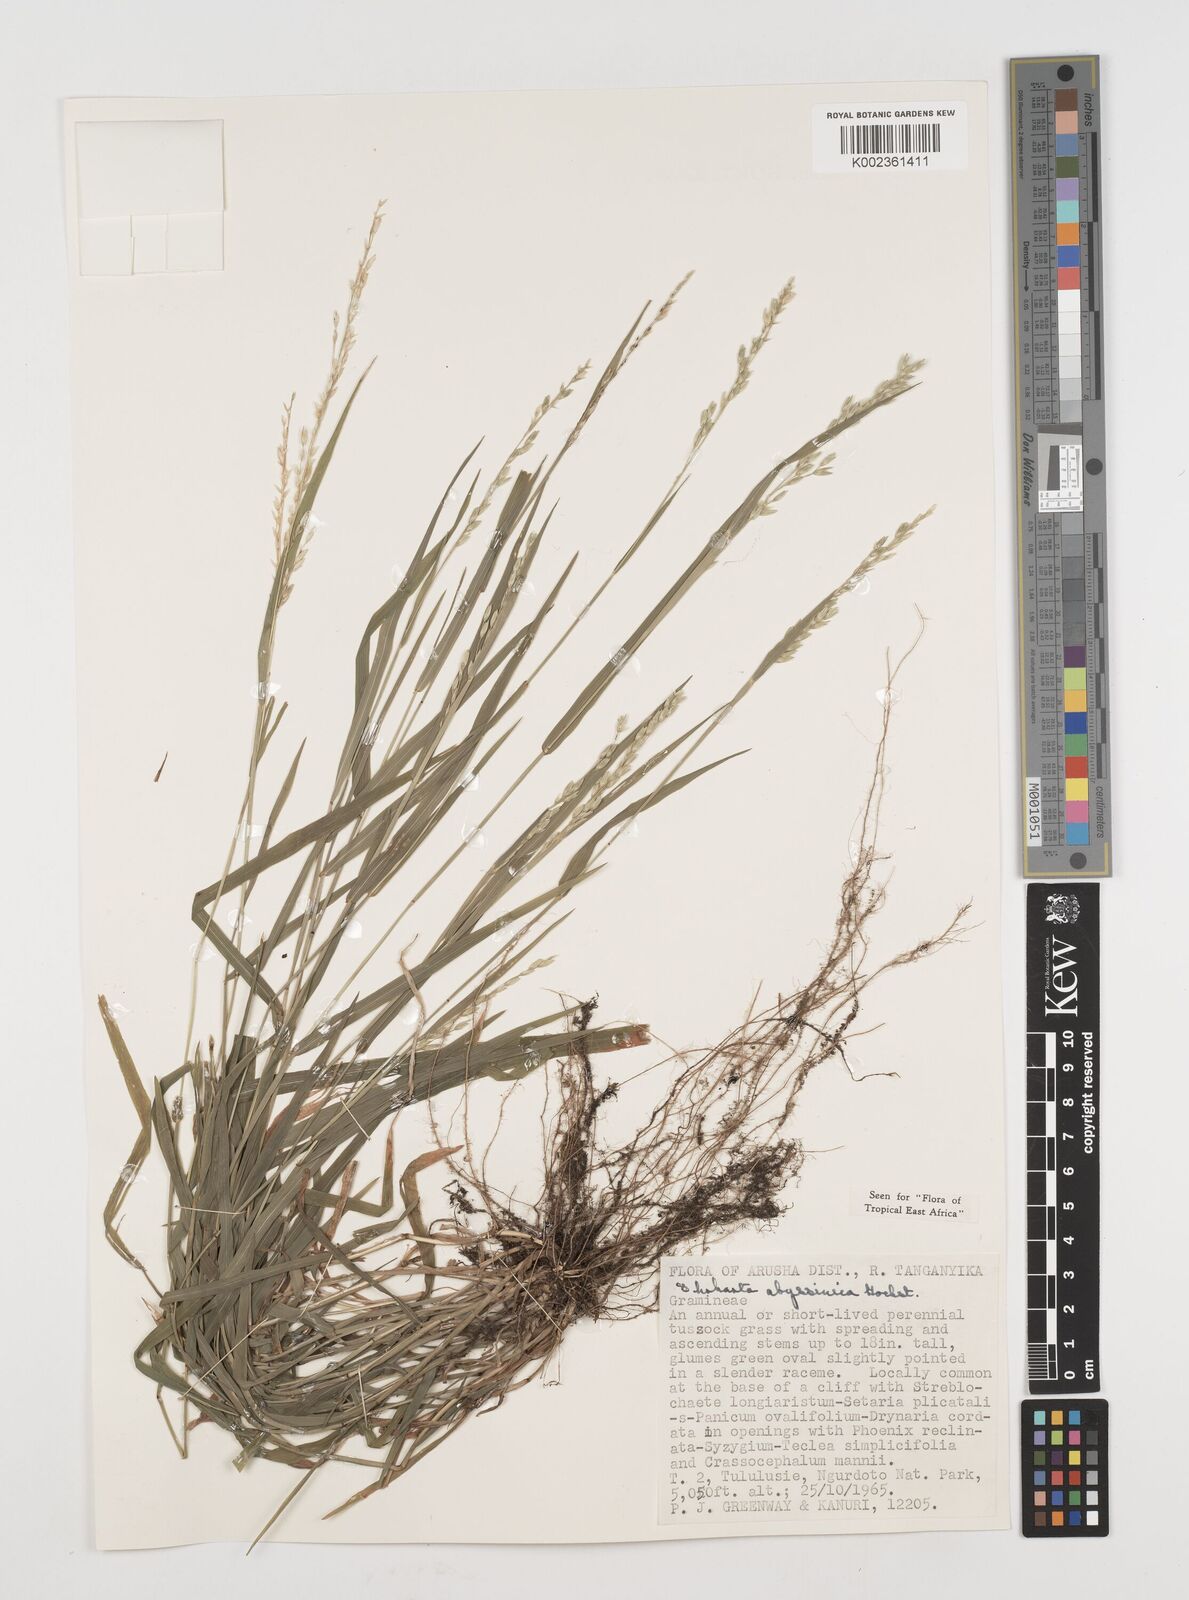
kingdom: Plantae
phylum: Tracheophyta
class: Liliopsida
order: Poales
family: Poaceae
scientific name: Poaceae
